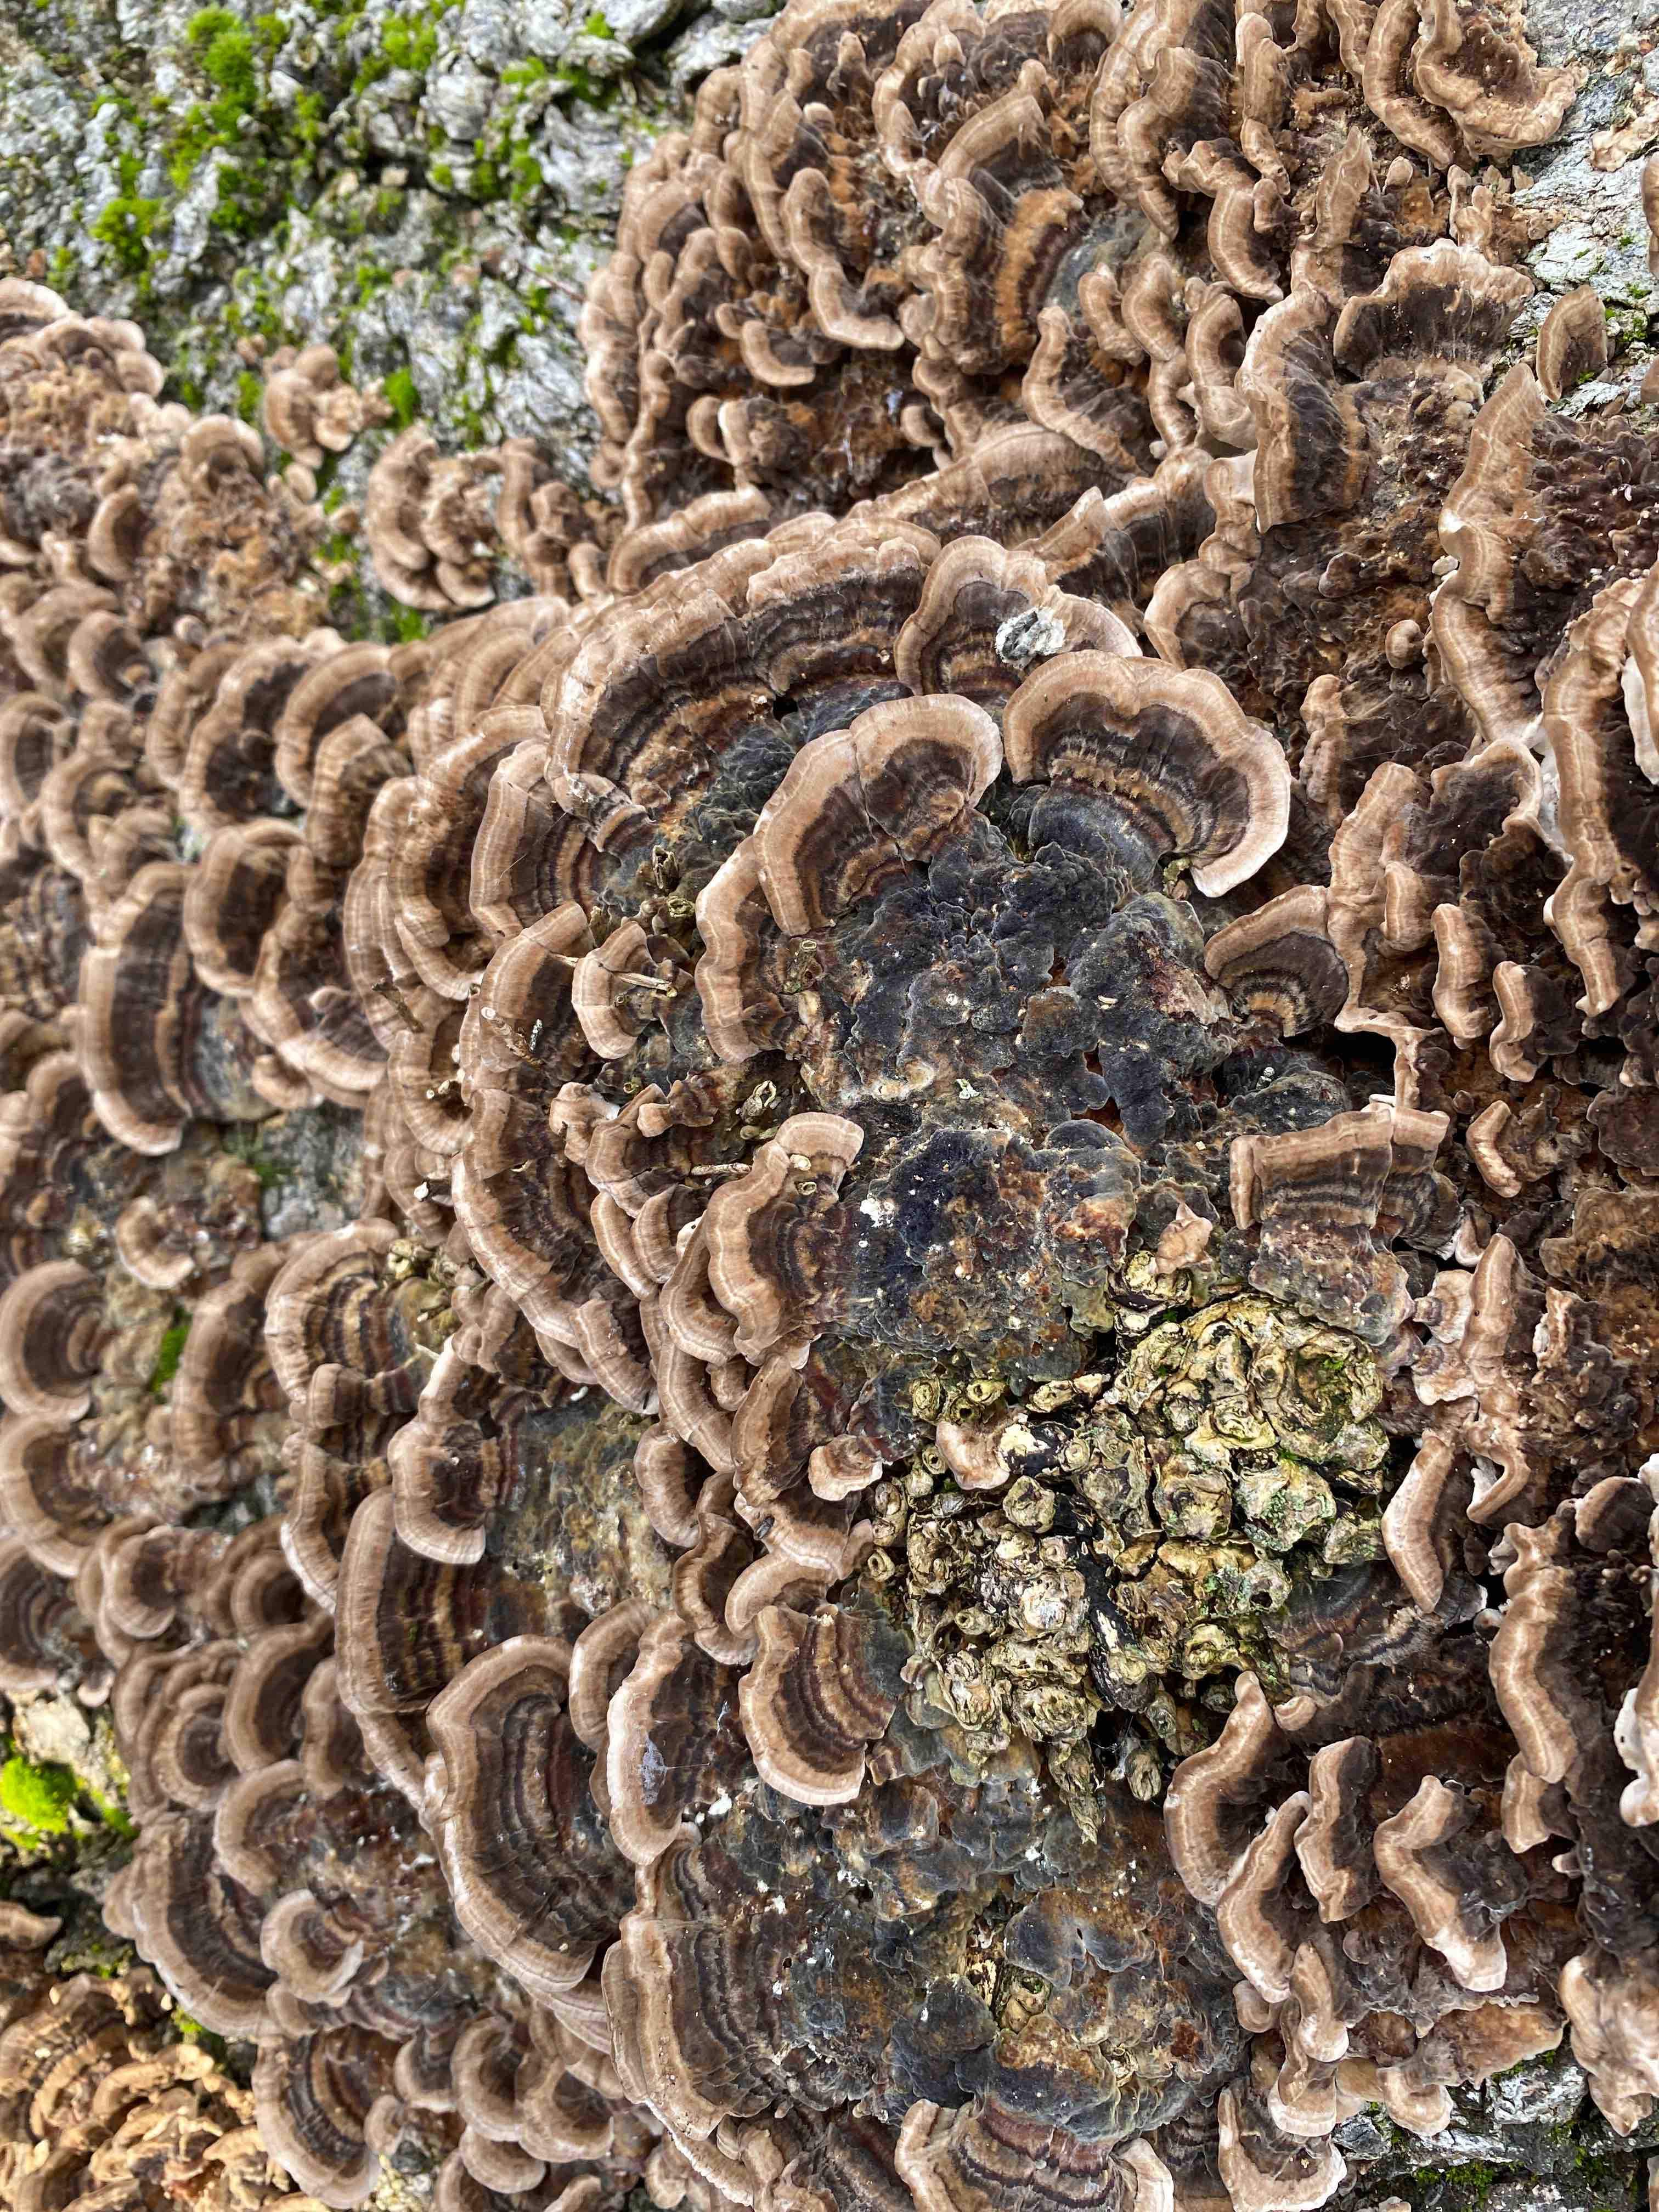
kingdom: Fungi
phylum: Basidiomycota
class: Agaricomycetes
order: Polyporales
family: Polyporaceae
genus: Trametes
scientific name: Trametes versicolor
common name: broget læderporesvamp
